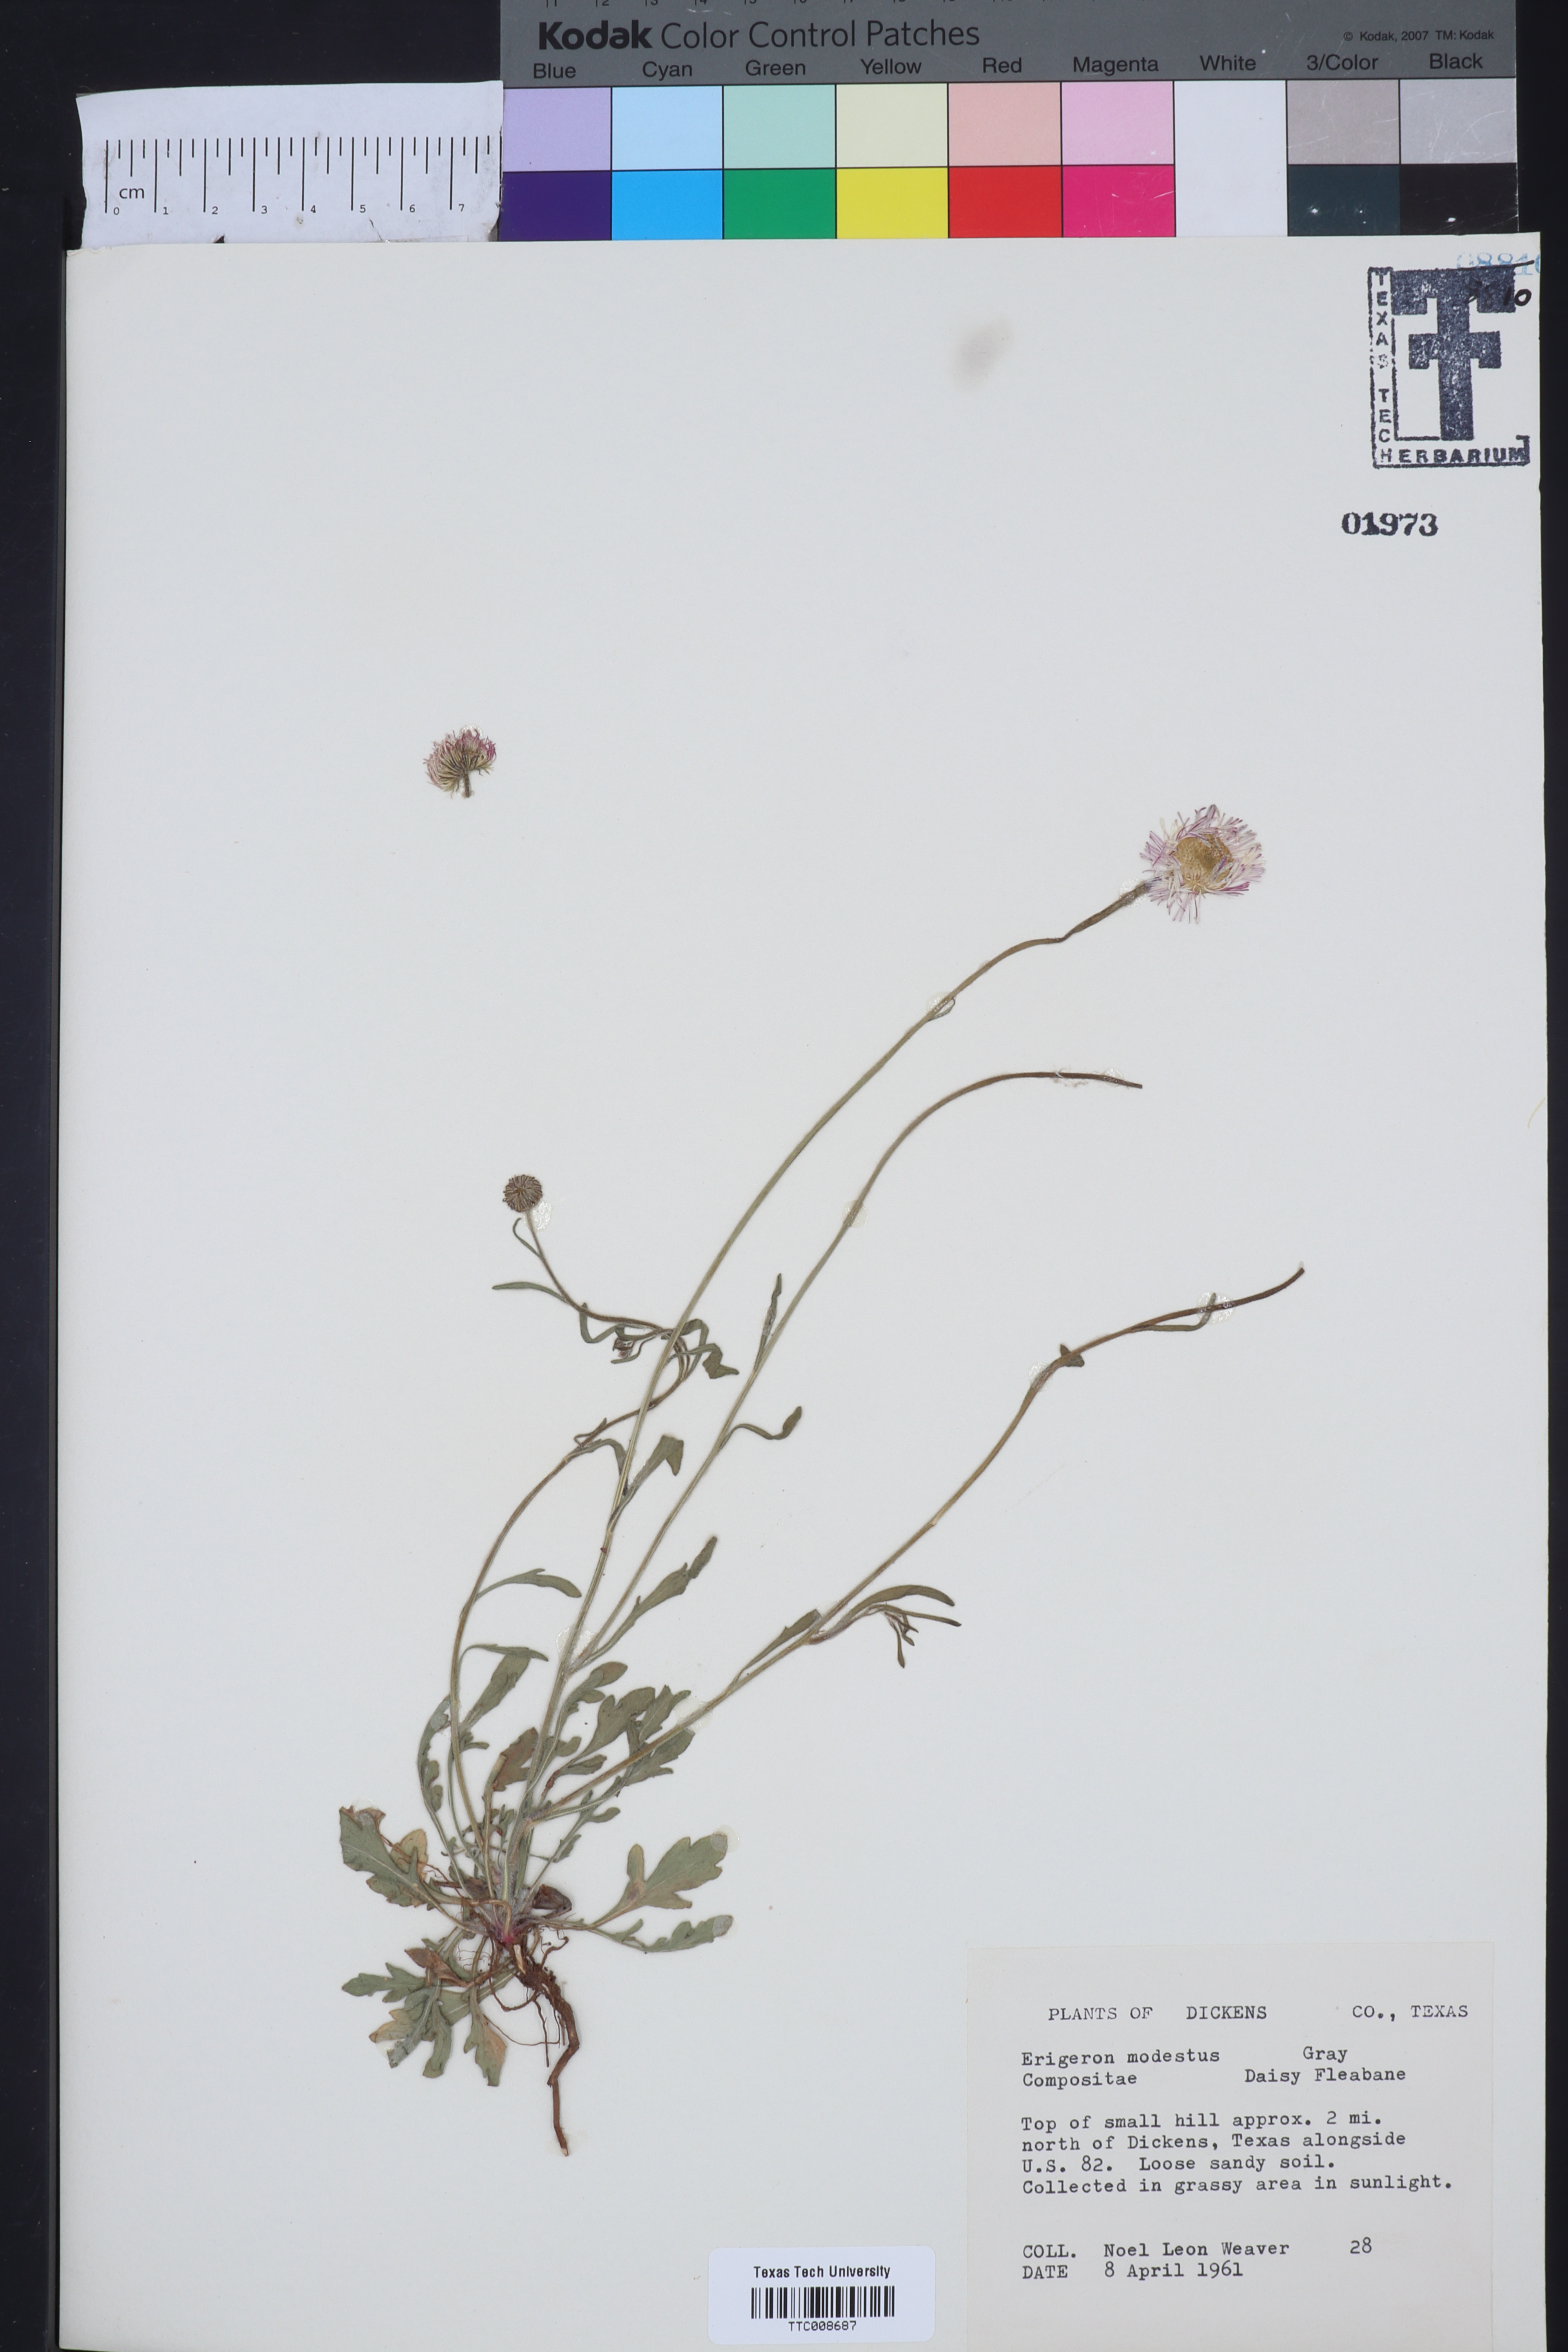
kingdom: Plantae
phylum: Tracheophyta
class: Magnoliopsida
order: Asterales
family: Asteraceae
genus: Erigeron
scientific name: Erigeron modestus
